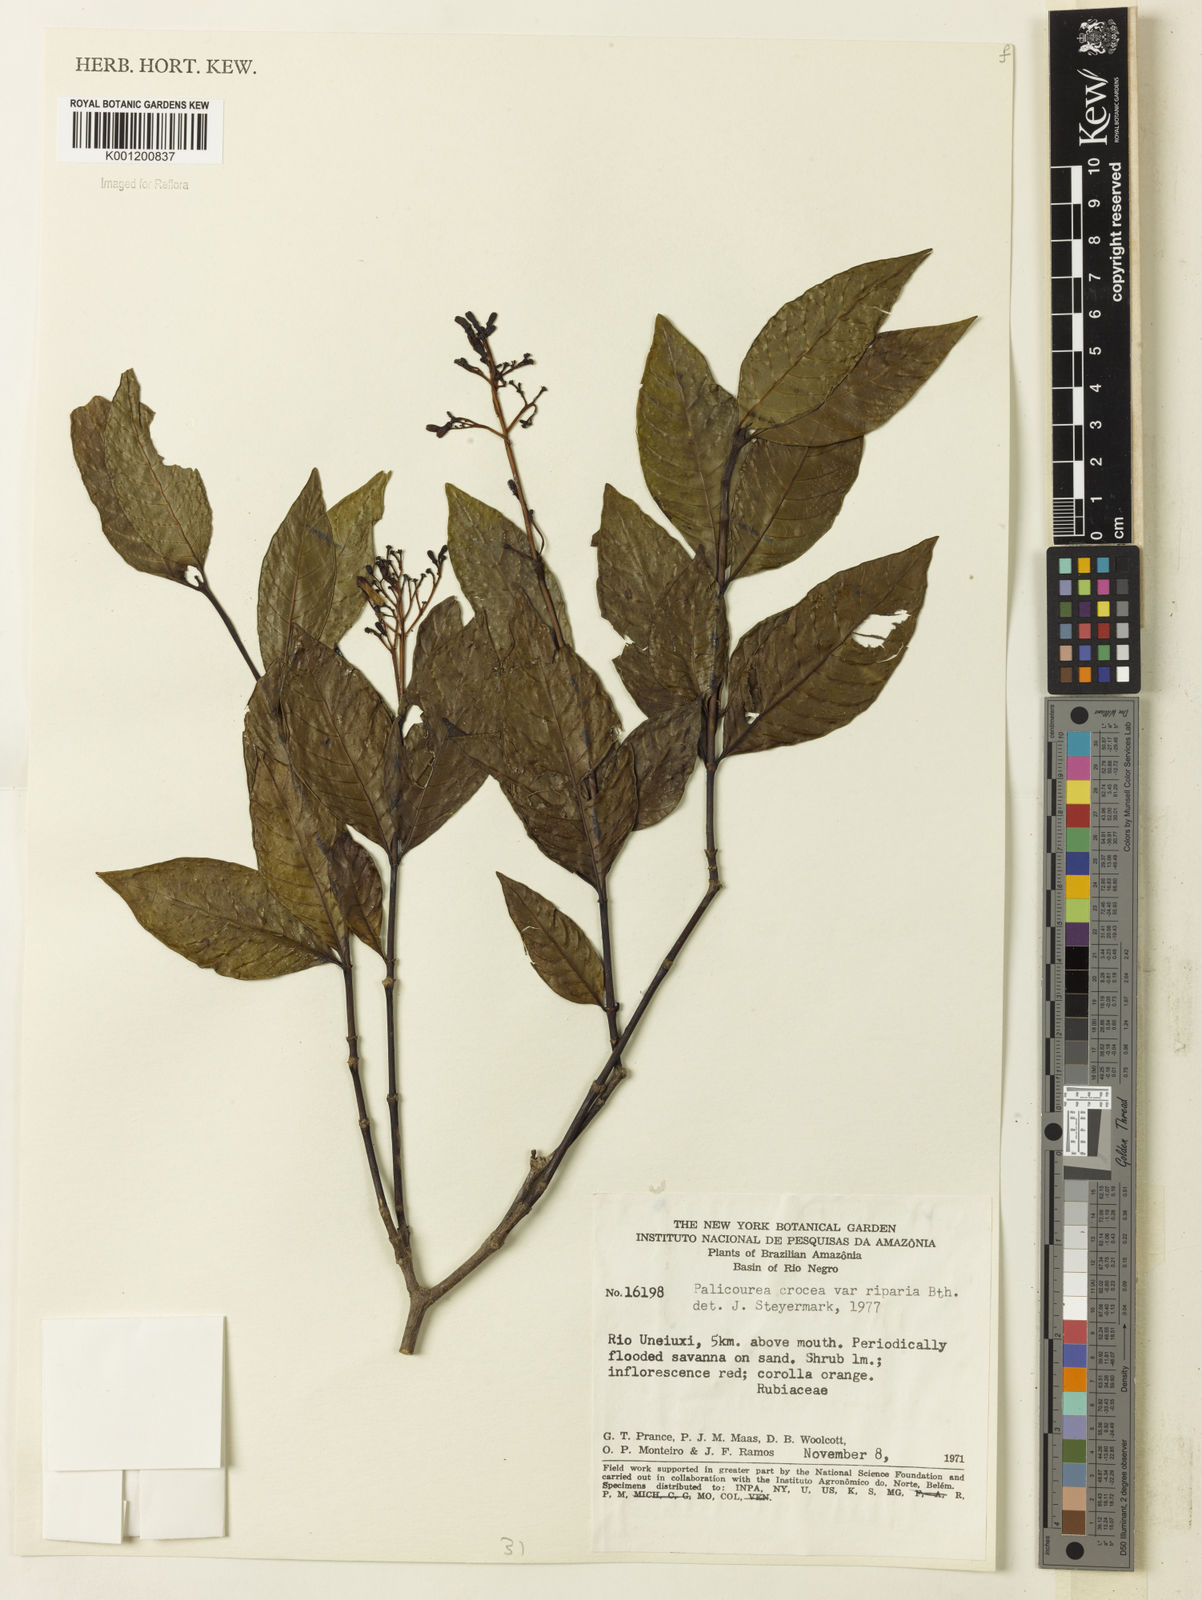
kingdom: Plantae
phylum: Tracheophyta
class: Magnoliopsida
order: Gentianales
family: Rubiaceae
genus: Palicourea
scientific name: Palicourea croceoides
